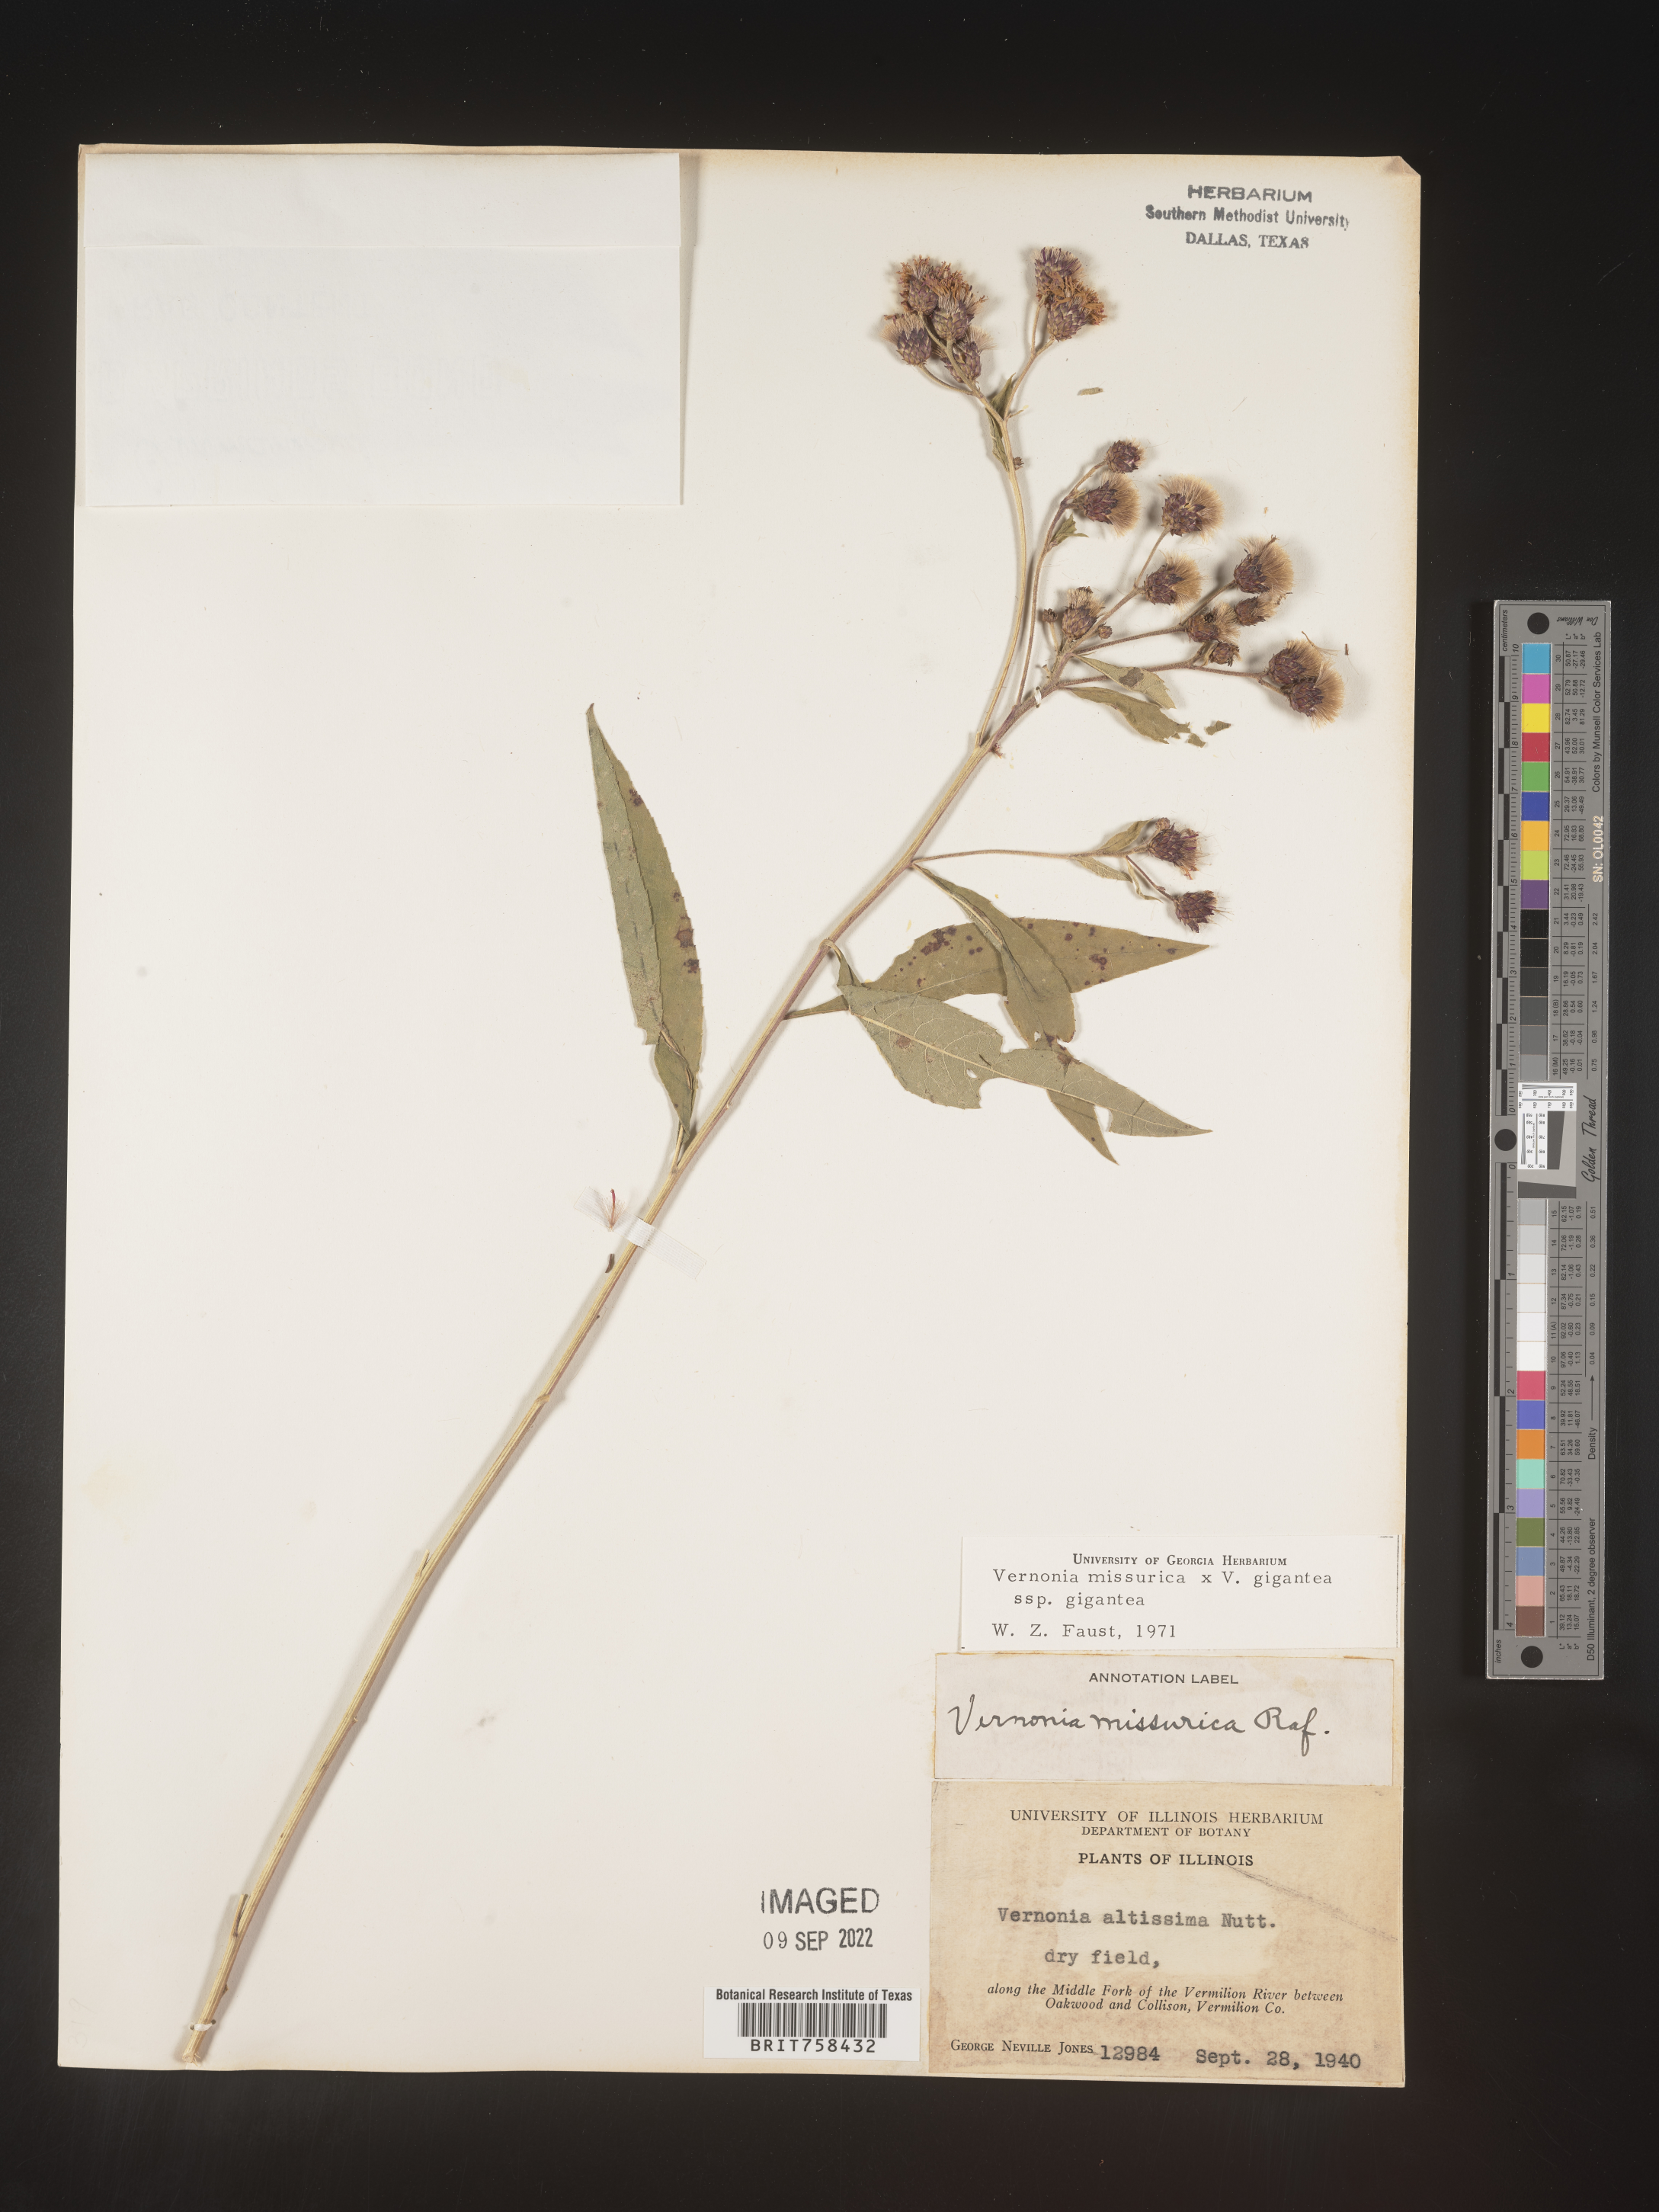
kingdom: Plantae
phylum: Tracheophyta
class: Magnoliopsida
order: Asterales
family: Asteraceae
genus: Vernonia
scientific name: Vernonia missurica
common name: Missouri ironweed
